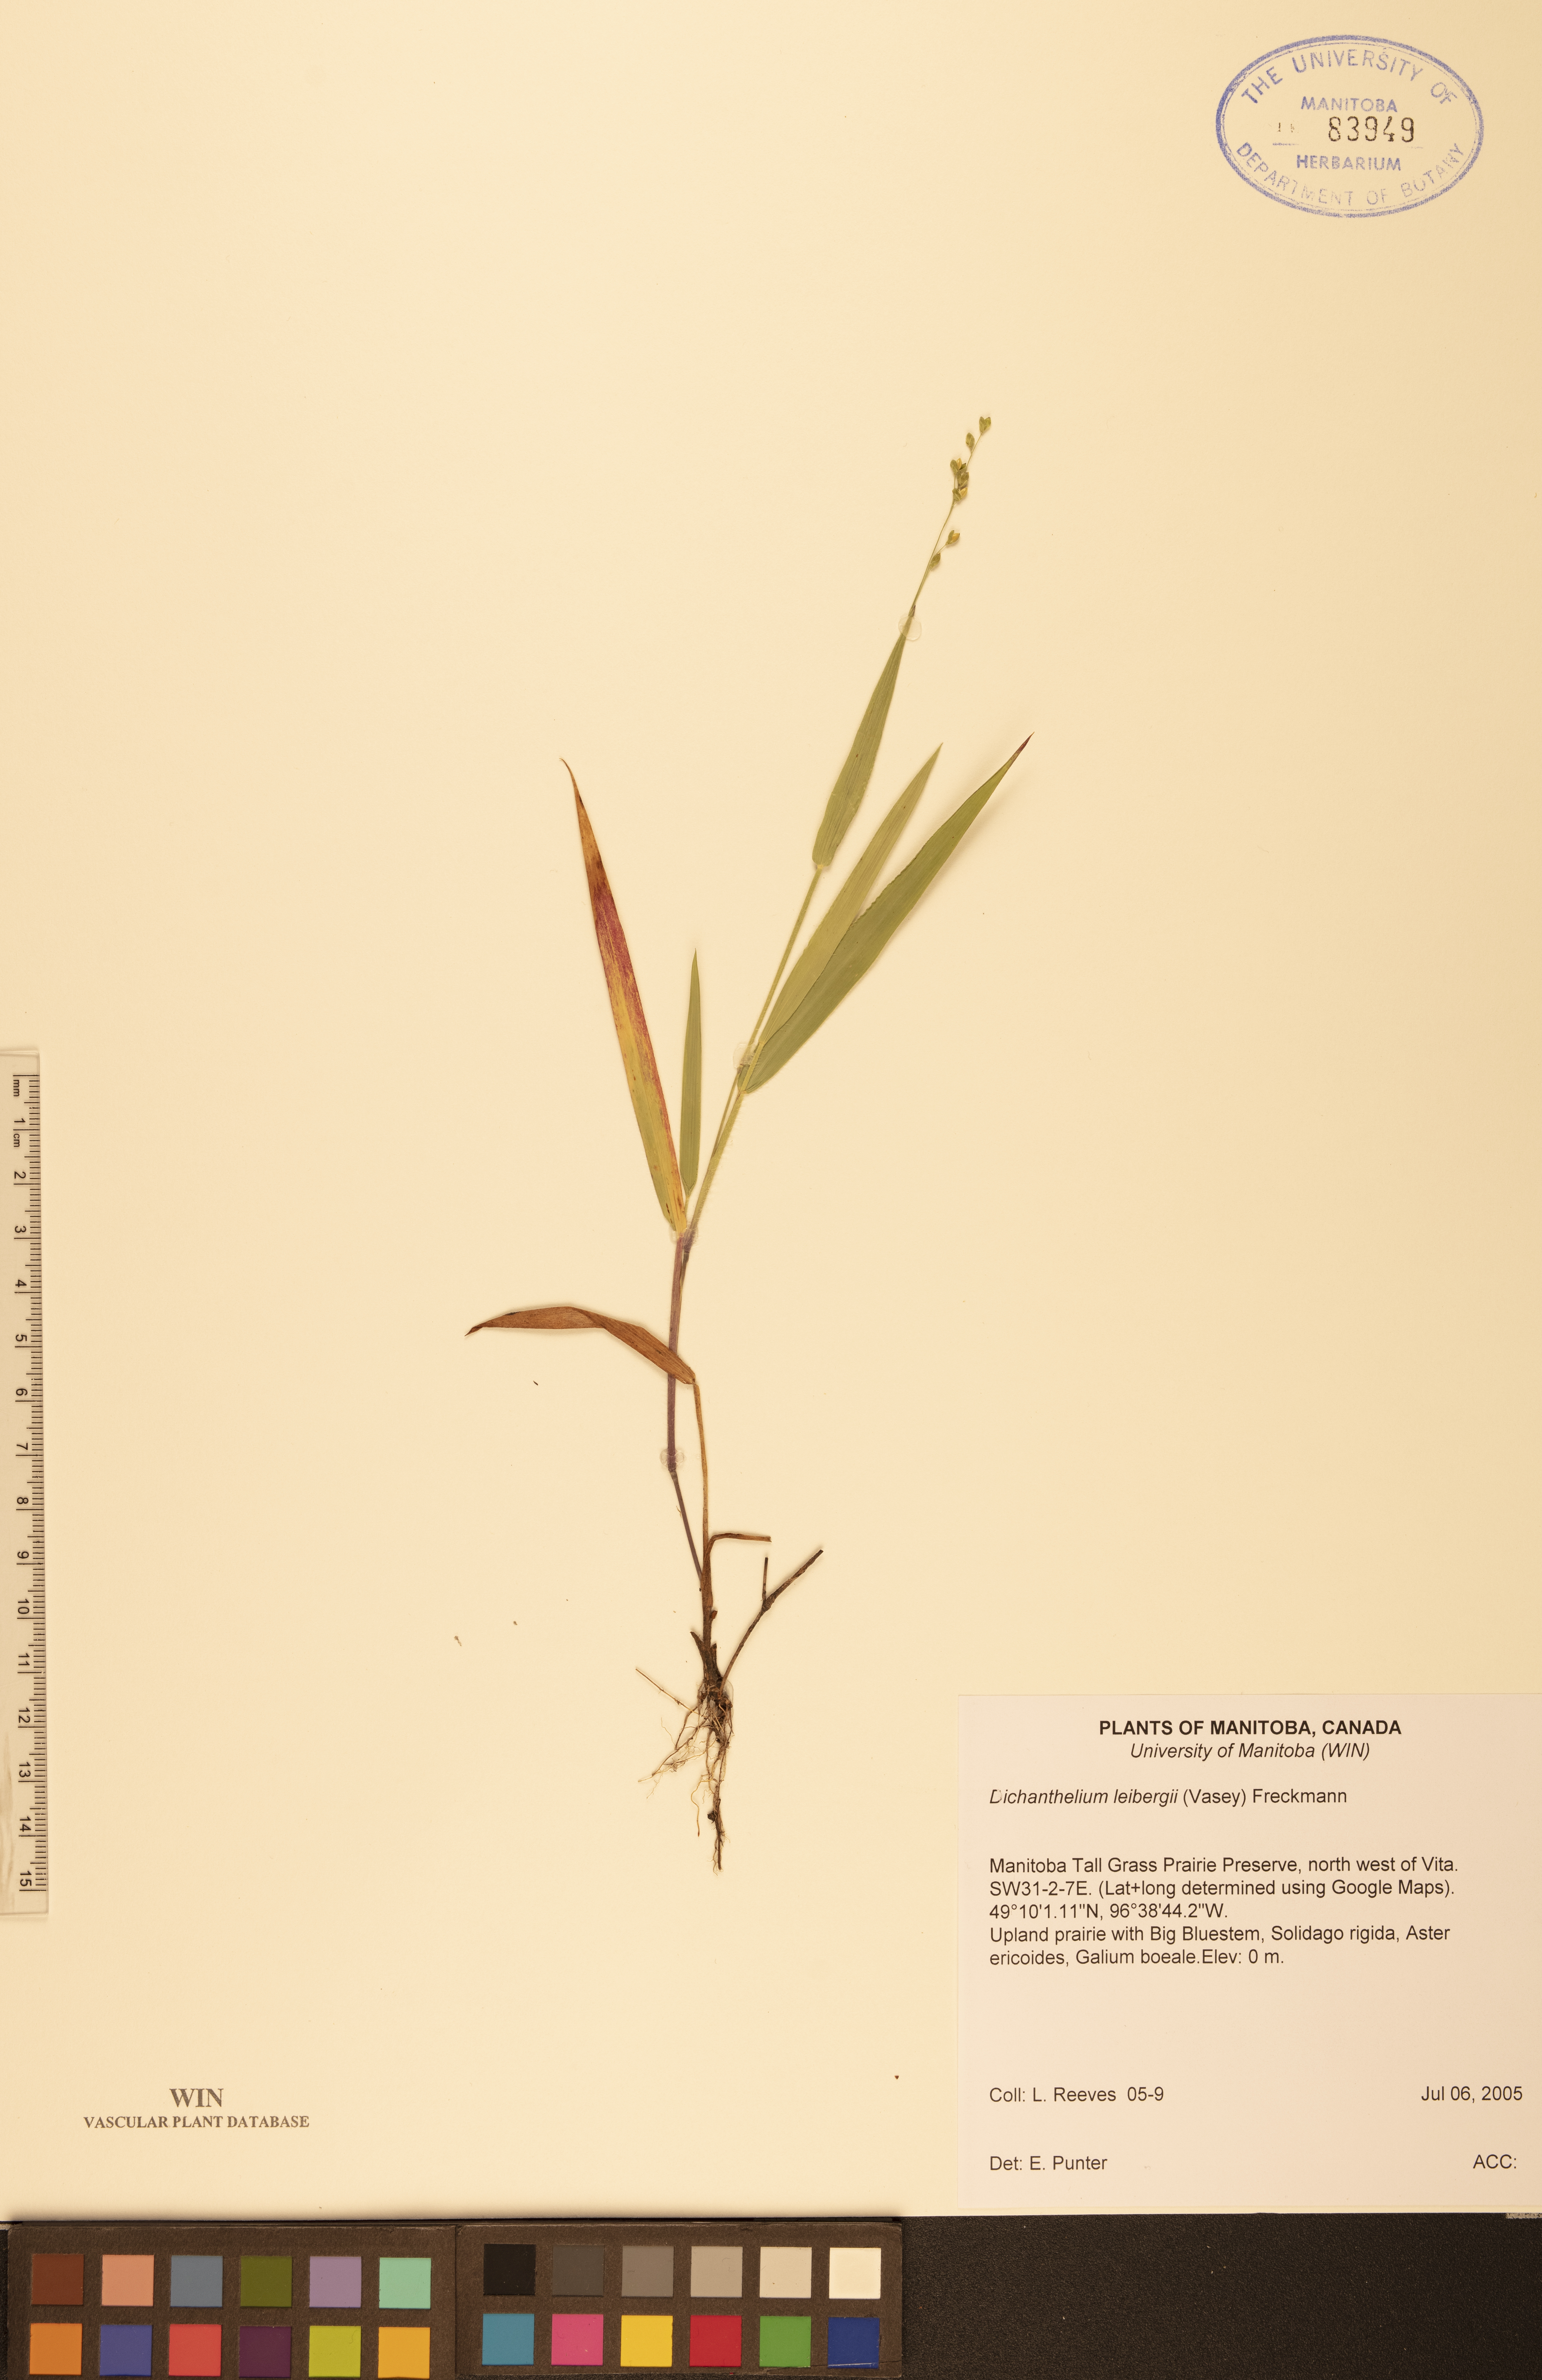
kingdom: Plantae
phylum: Tracheophyta
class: Liliopsida
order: Poales
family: Poaceae
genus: Dichanthelium
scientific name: Dichanthelium leibergii
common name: Leiberg's panic grass
